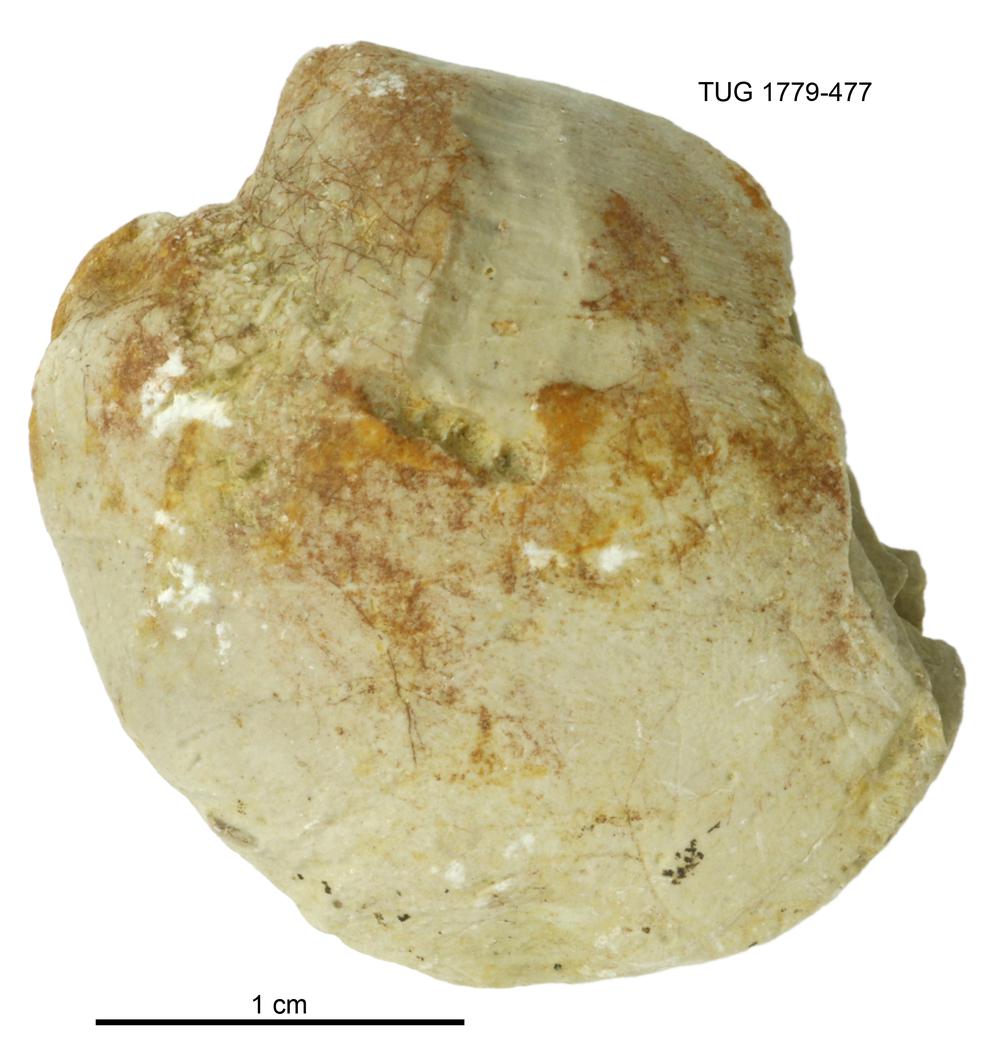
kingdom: Animalia
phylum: Mollusca
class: Bivalvia
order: Modiomorphida
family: Modiomorphidae
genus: Modiolopsis
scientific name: Modiolopsis
